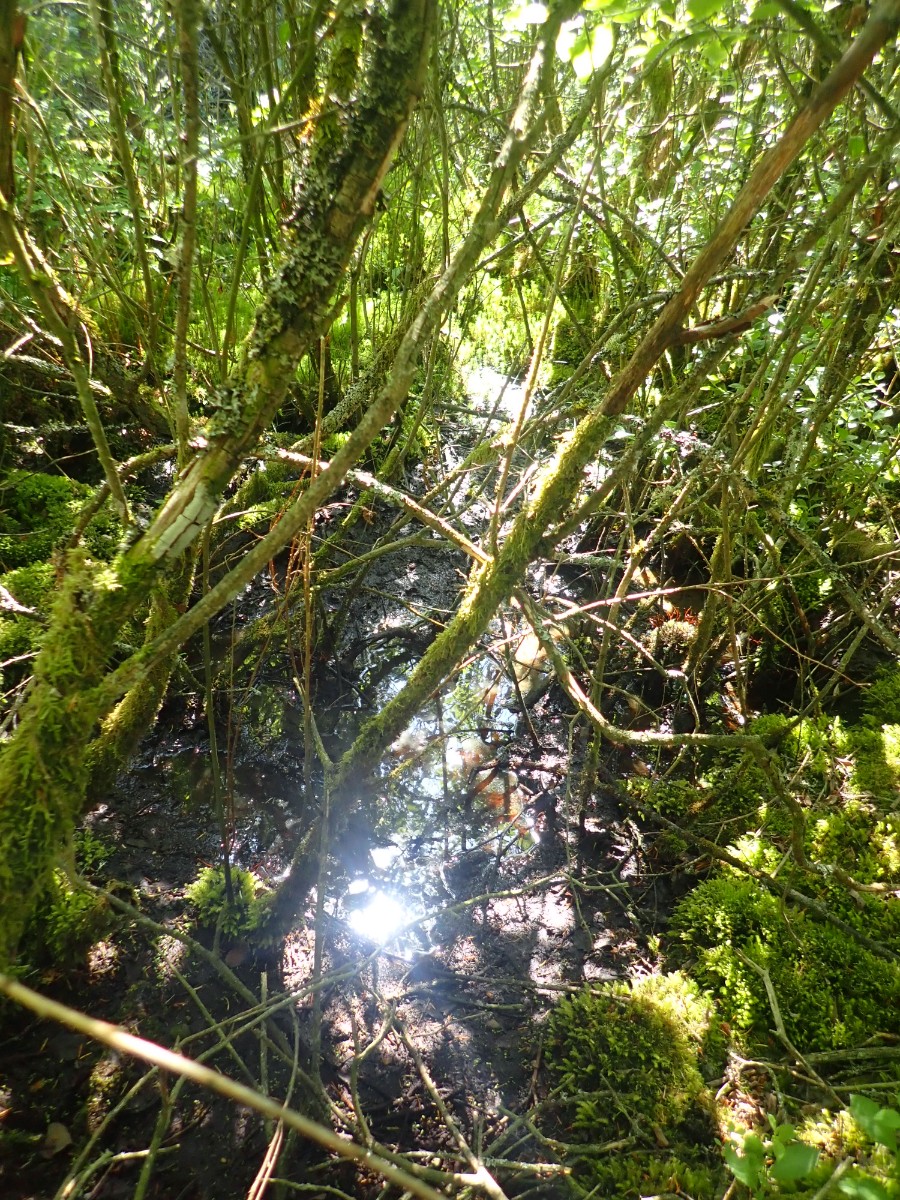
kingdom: Fungi
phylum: Basidiomycota
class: Agaricomycetes
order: Agaricales
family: Entolomataceae
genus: Entoloma
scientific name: Entoloma politum
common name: poleret rødblad
